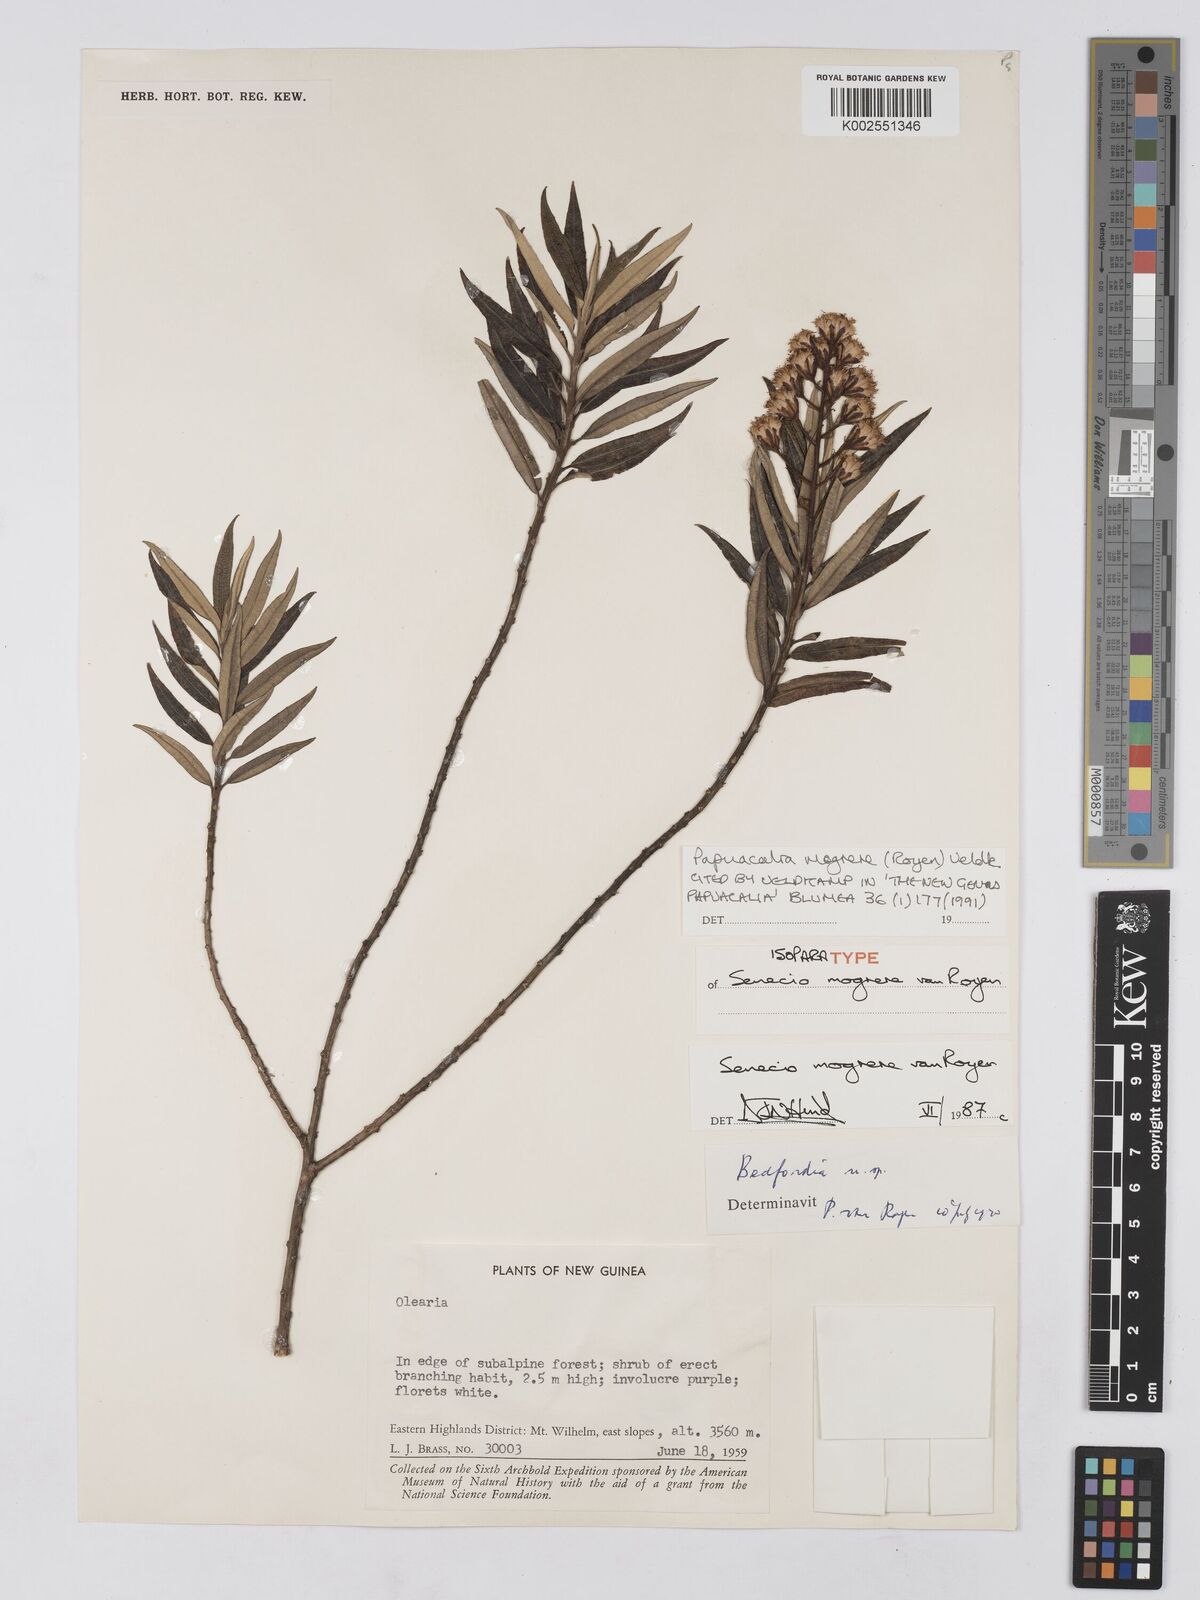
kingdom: Plantae
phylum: Tracheophyta
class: Magnoliopsida
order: Asterales
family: Asteraceae
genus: Papuacalia
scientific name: Papuacalia mogrere
